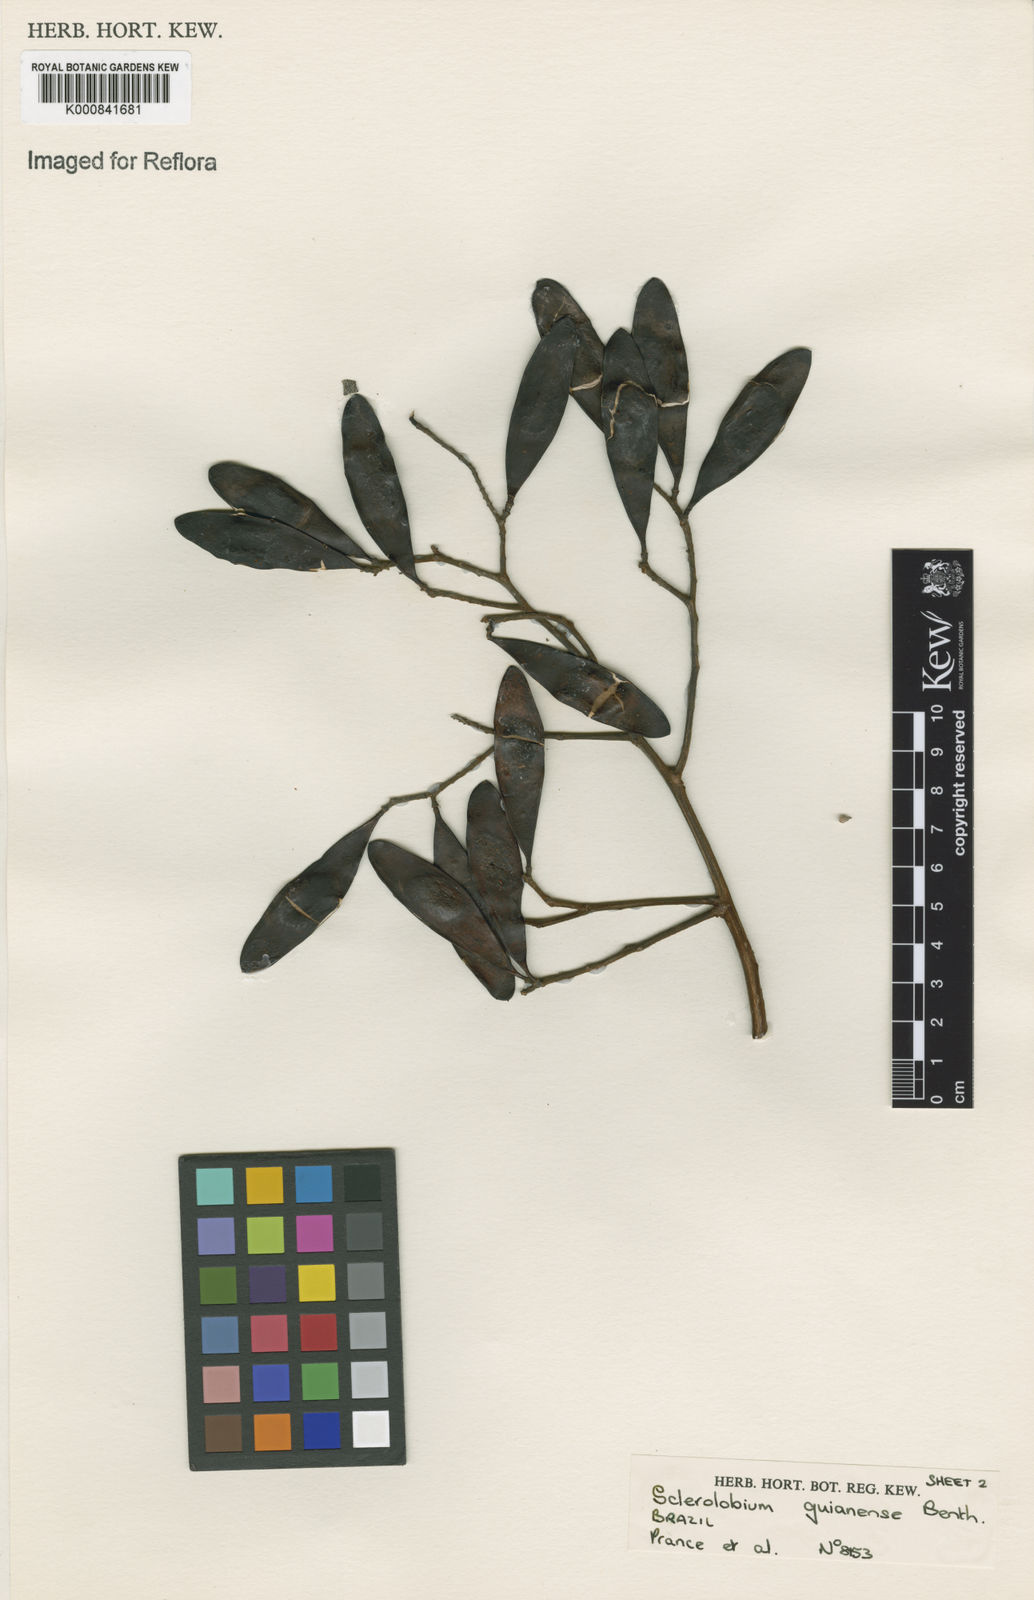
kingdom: Plantae
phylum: Tracheophyta
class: Magnoliopsida
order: Fabales
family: Fabaceae
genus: Tachigali
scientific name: Tachigali guianensis
